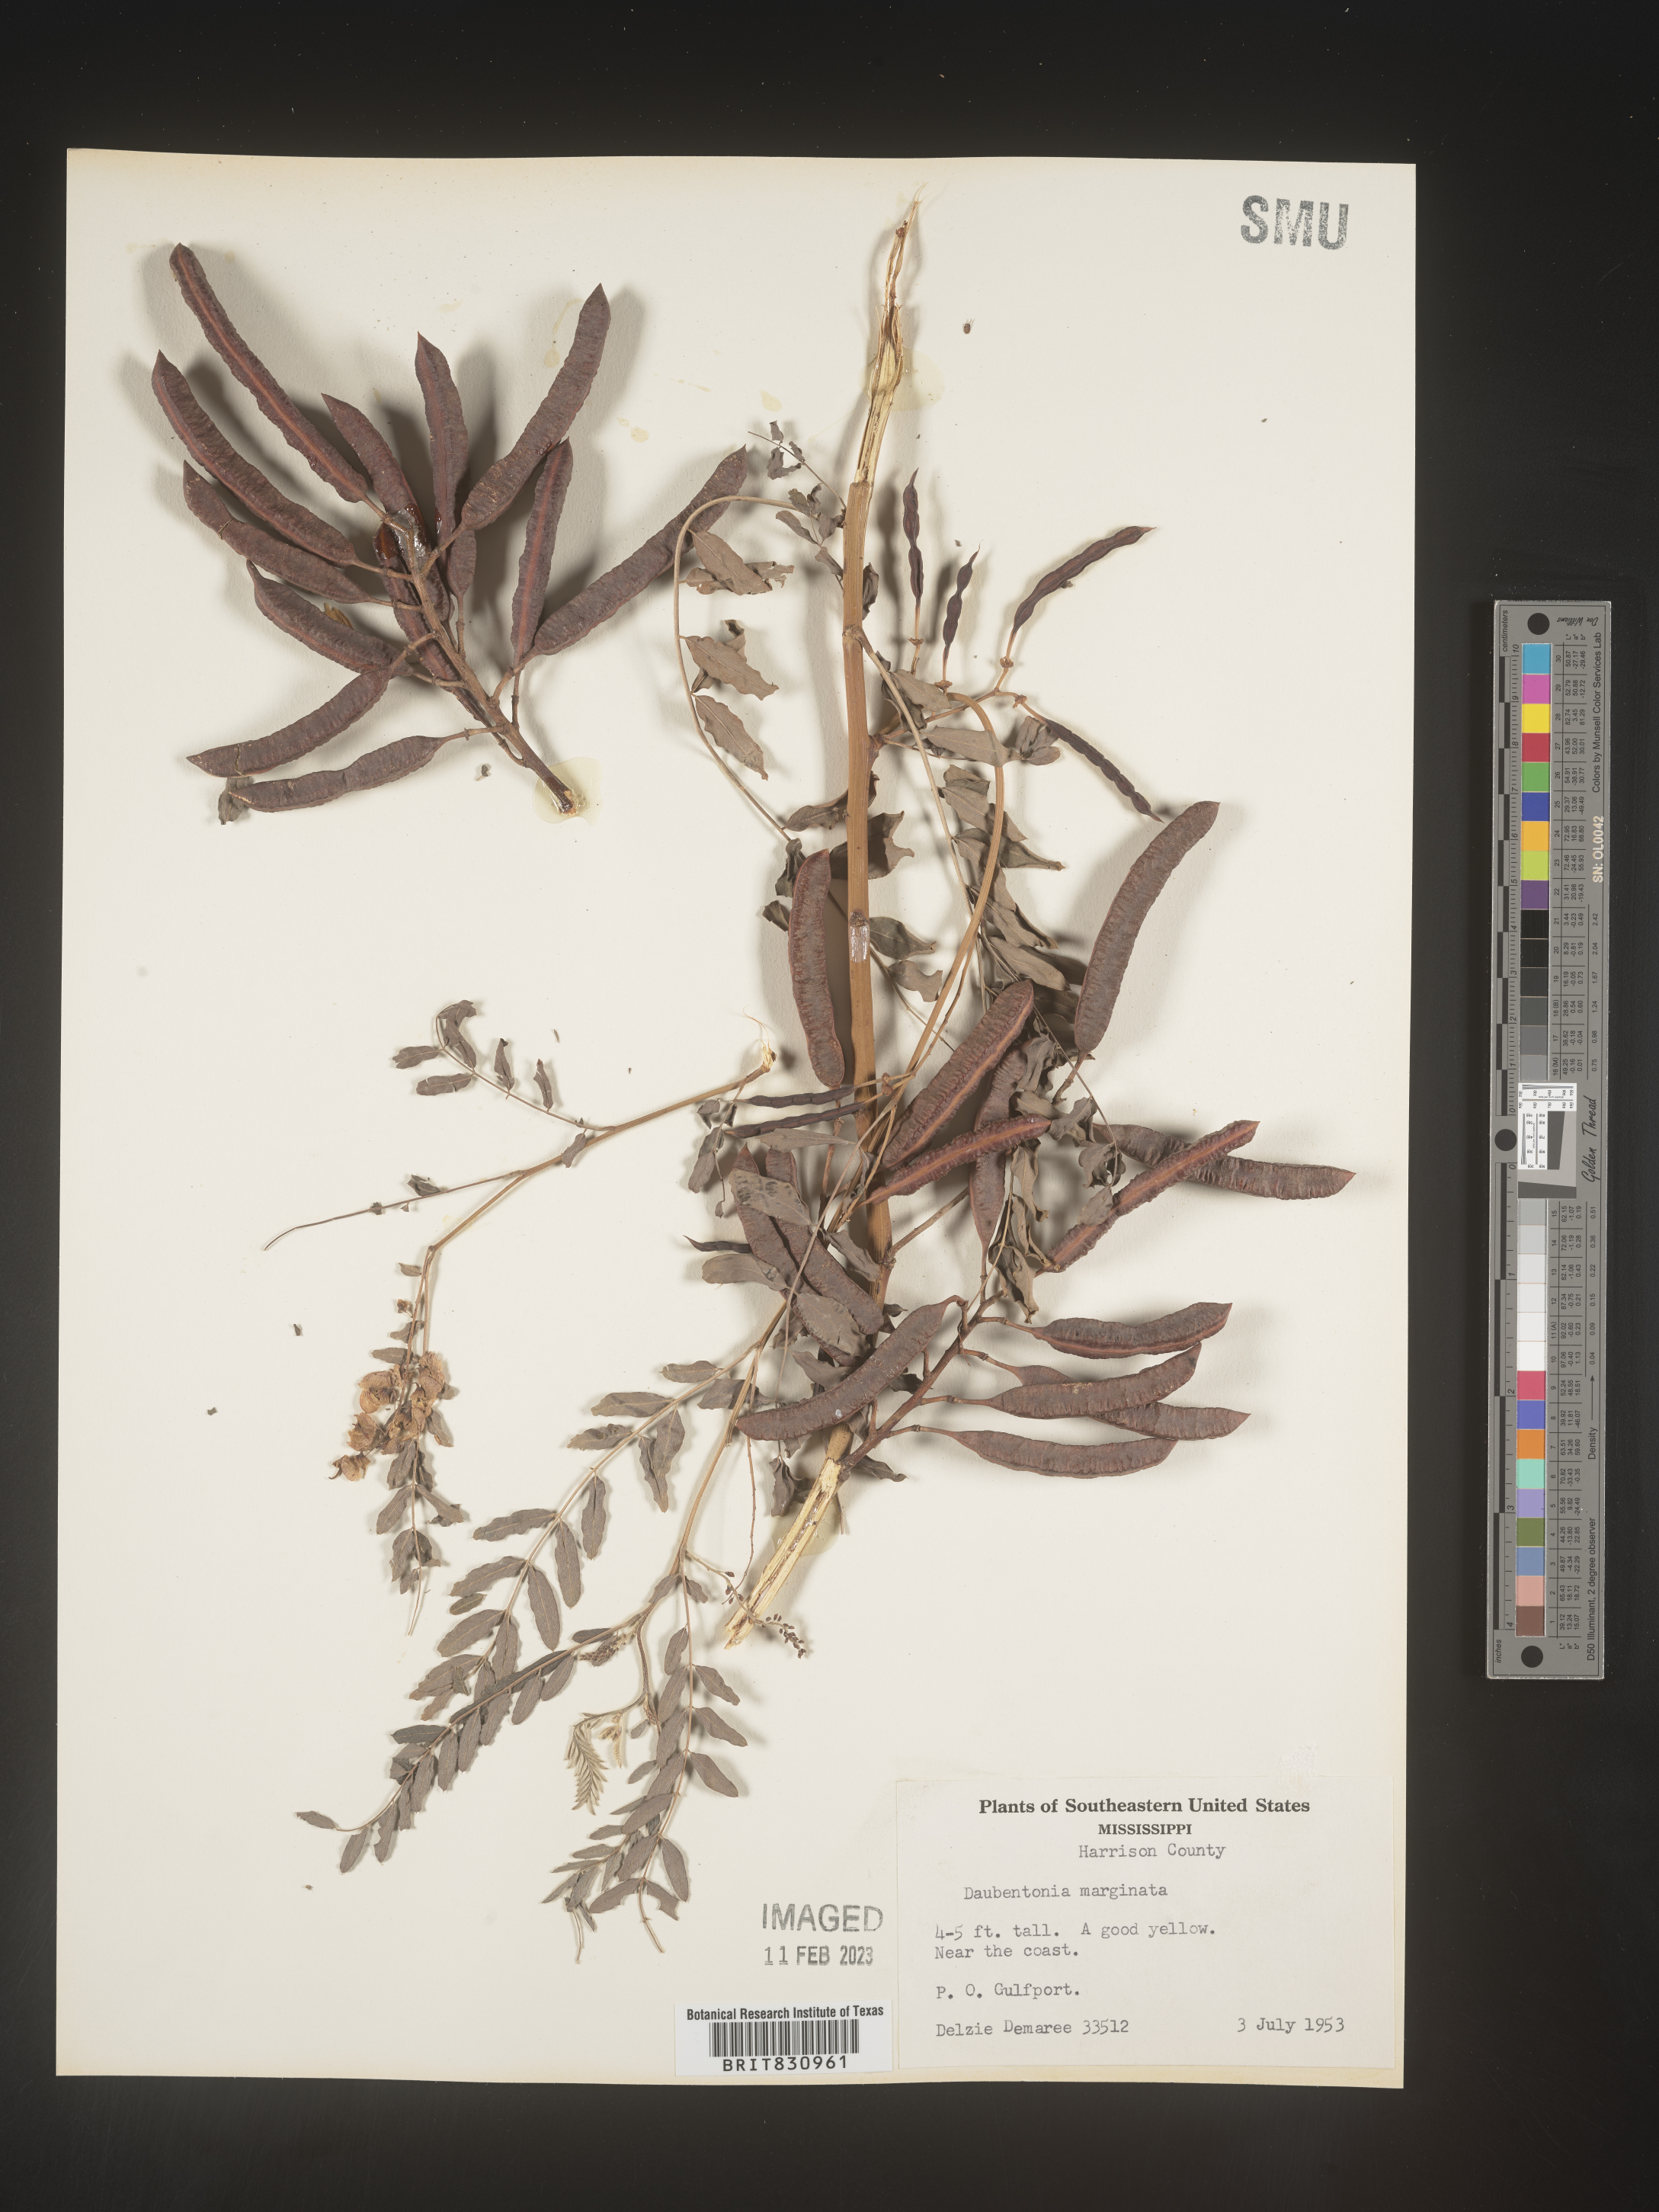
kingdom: Plantae
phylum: Tracheophyta
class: Magnoliopsida
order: Fabales
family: Fabaceae
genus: Sesbania
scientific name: Sesbania
